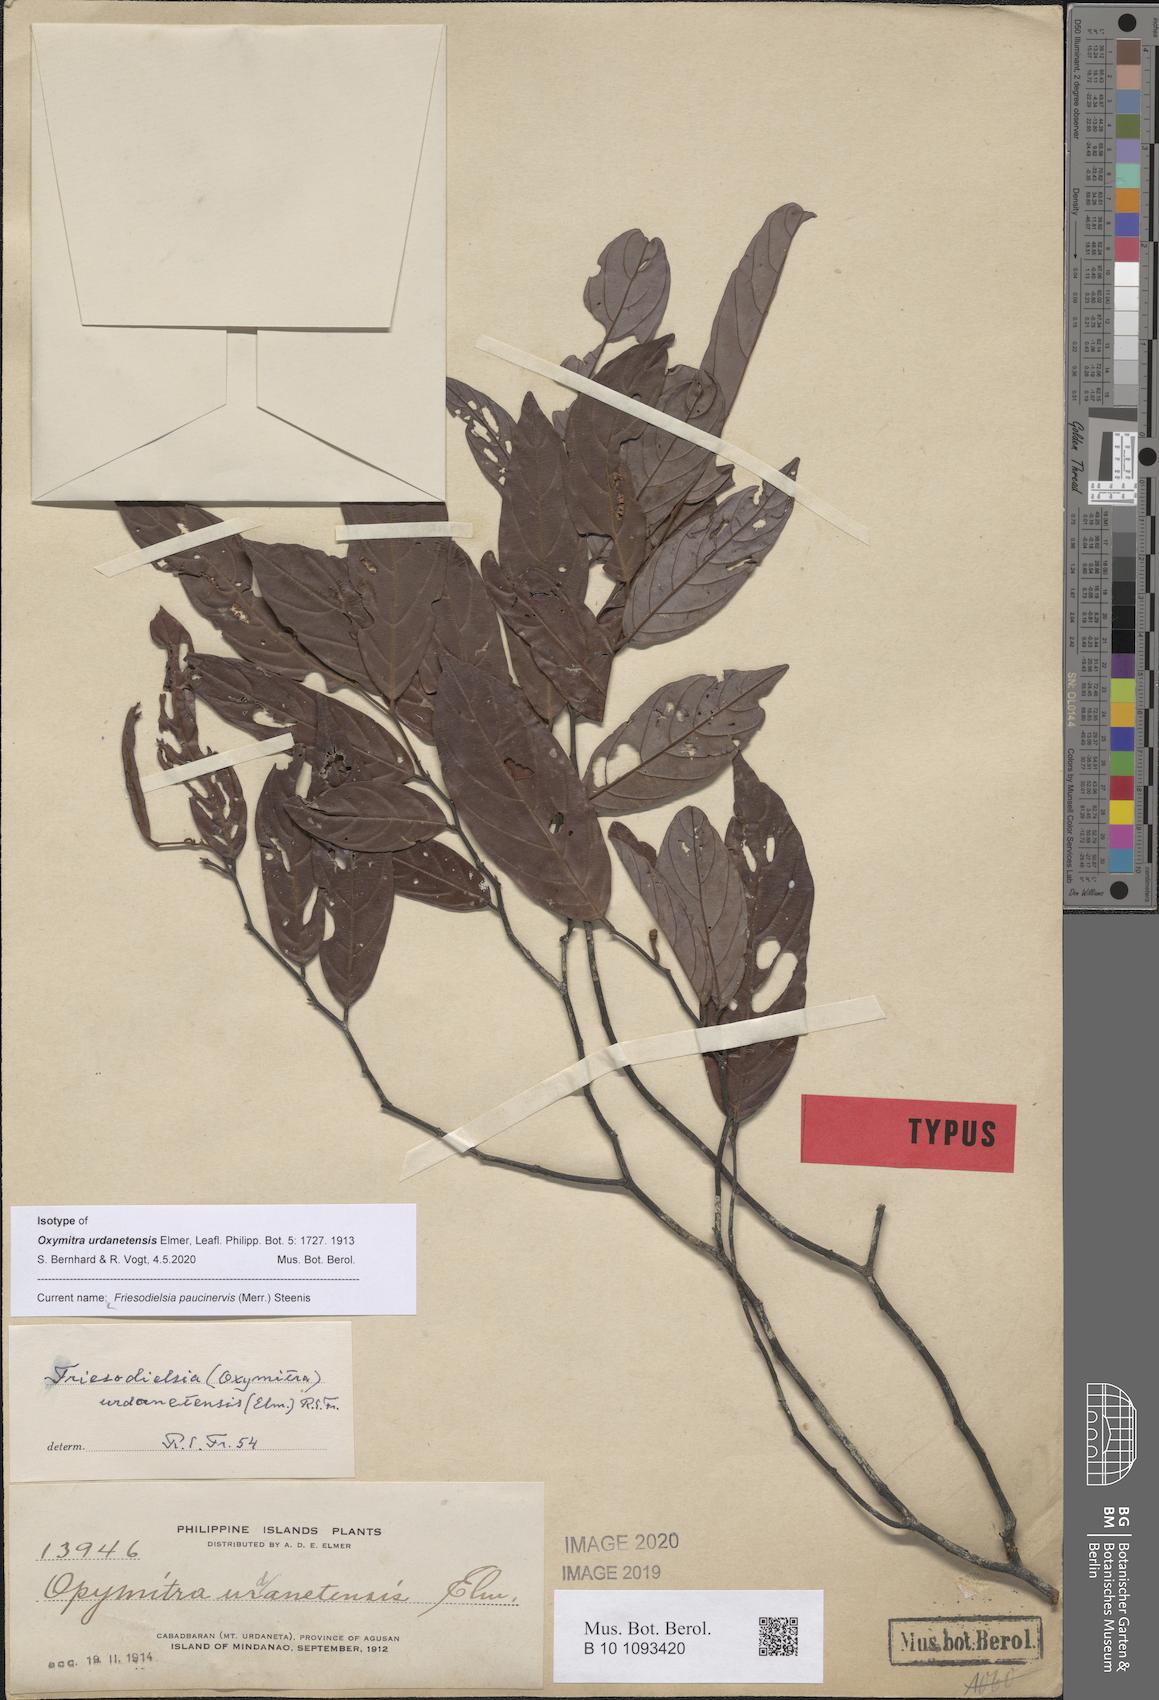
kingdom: Plantae
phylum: Tracheophyta
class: Magnoliopsida
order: Magnoliales
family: Annonaceae
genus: Friesodielsia
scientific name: Friesodielsia paucinervis
